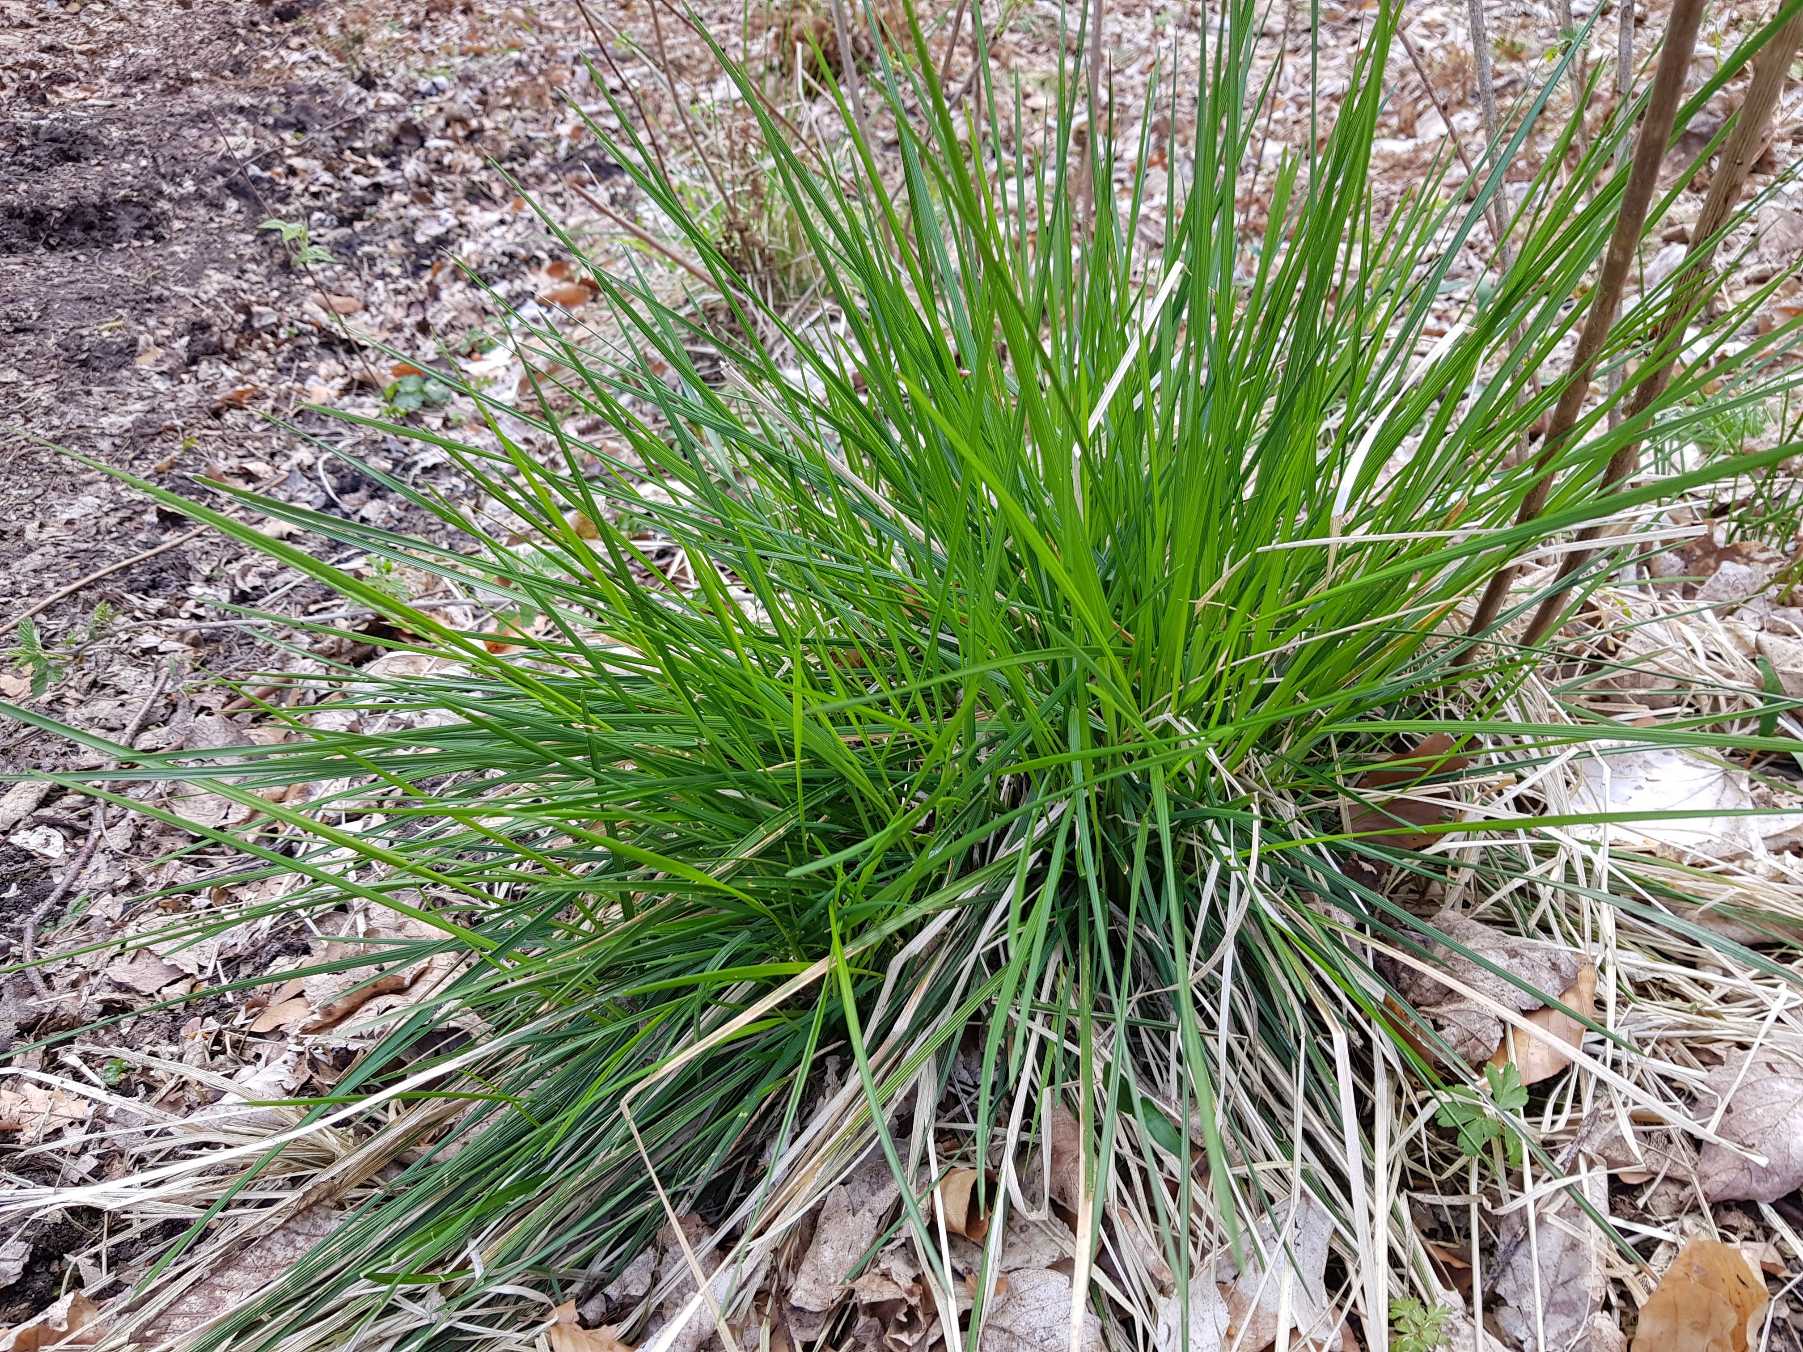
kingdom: Plantae
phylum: Tracheophyta
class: Liliopsida
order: Poales
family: Poaceae
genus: Deschampsia
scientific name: Deschampsia cespitosa
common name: Mose-bunke
